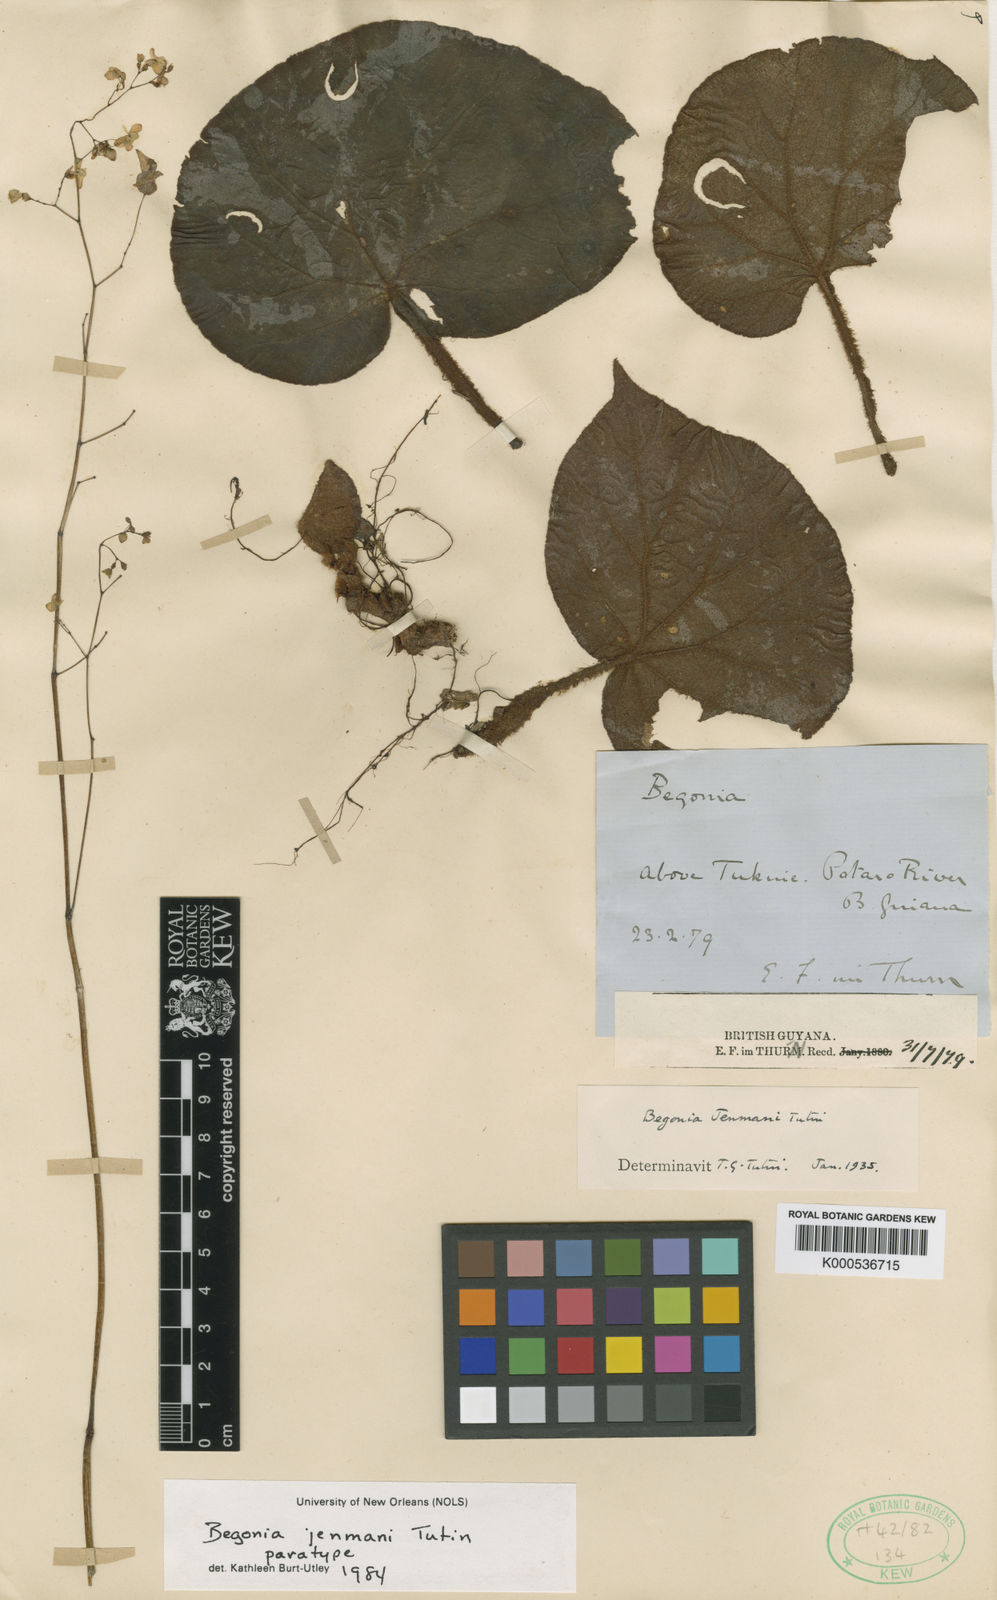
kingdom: Plantae
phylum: Tracheophyta
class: Magnoliopsida
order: Cucurbitales
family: Begoniaceae
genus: Begonia
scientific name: Begonia jenmanii
